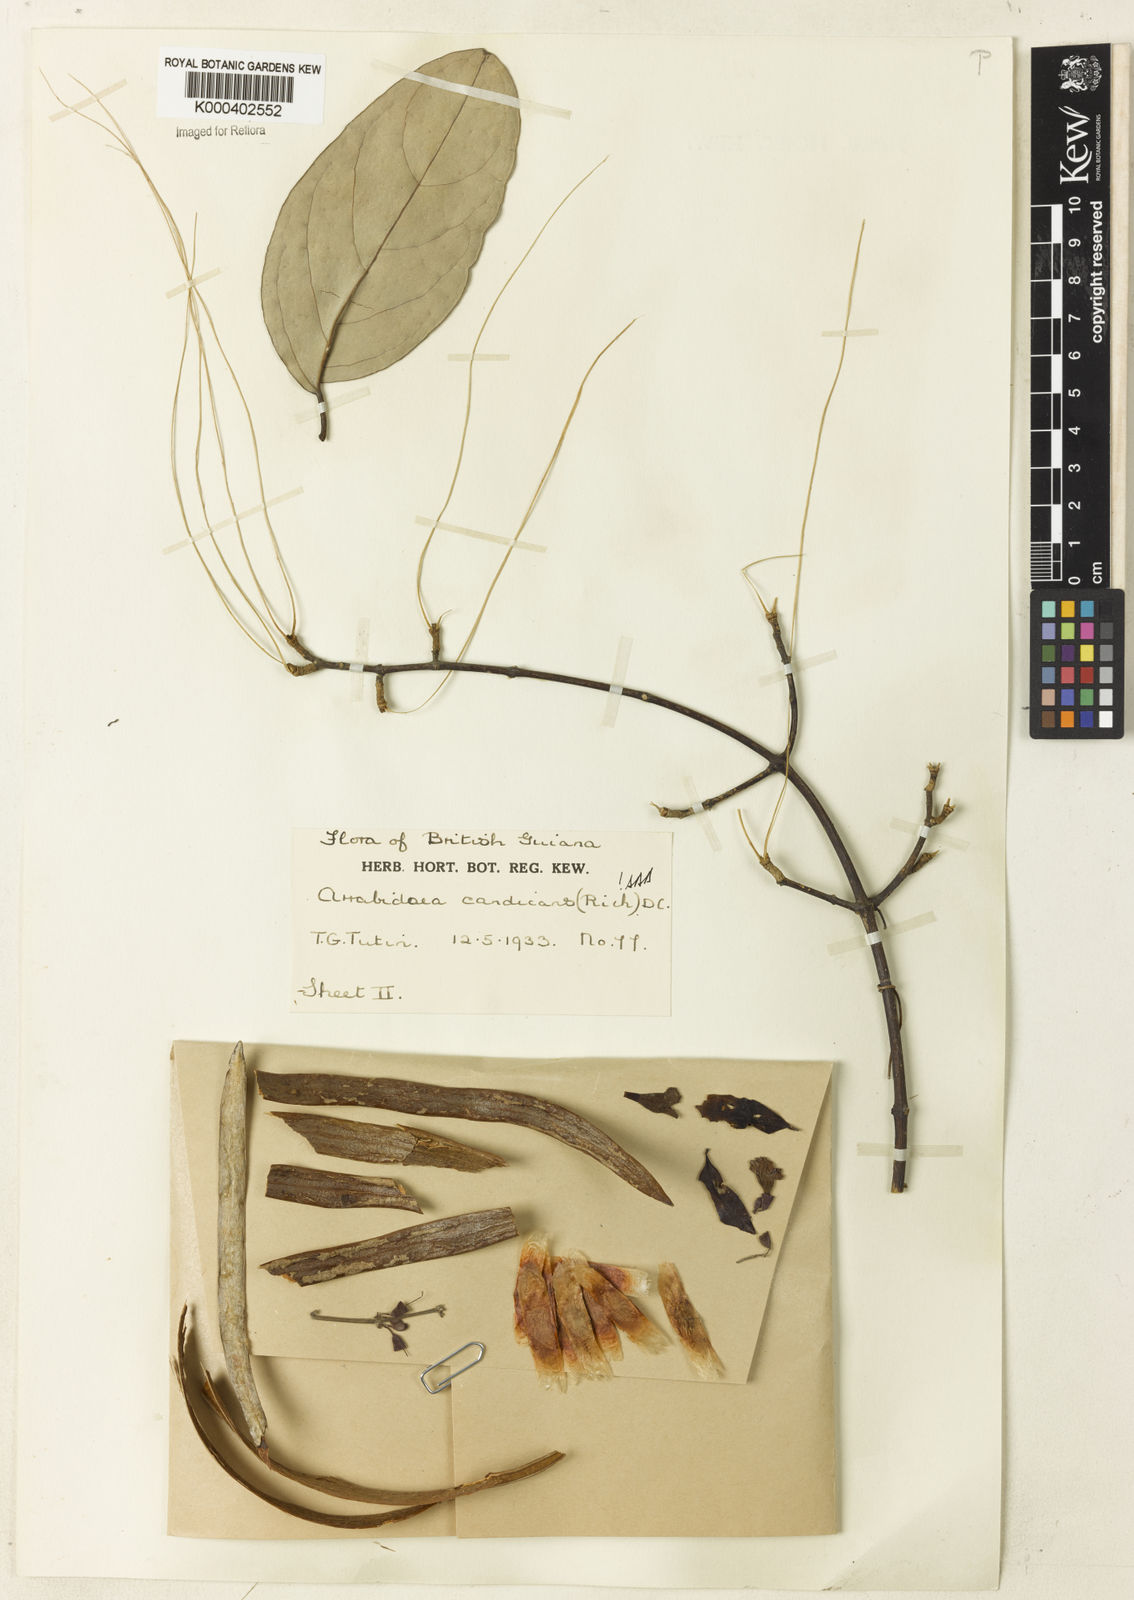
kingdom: Plantae
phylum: Tracheophyta
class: Magnoliopsida
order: Lamiales
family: Bignoniaceae
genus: Fridericia
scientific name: Fridericia candicans
